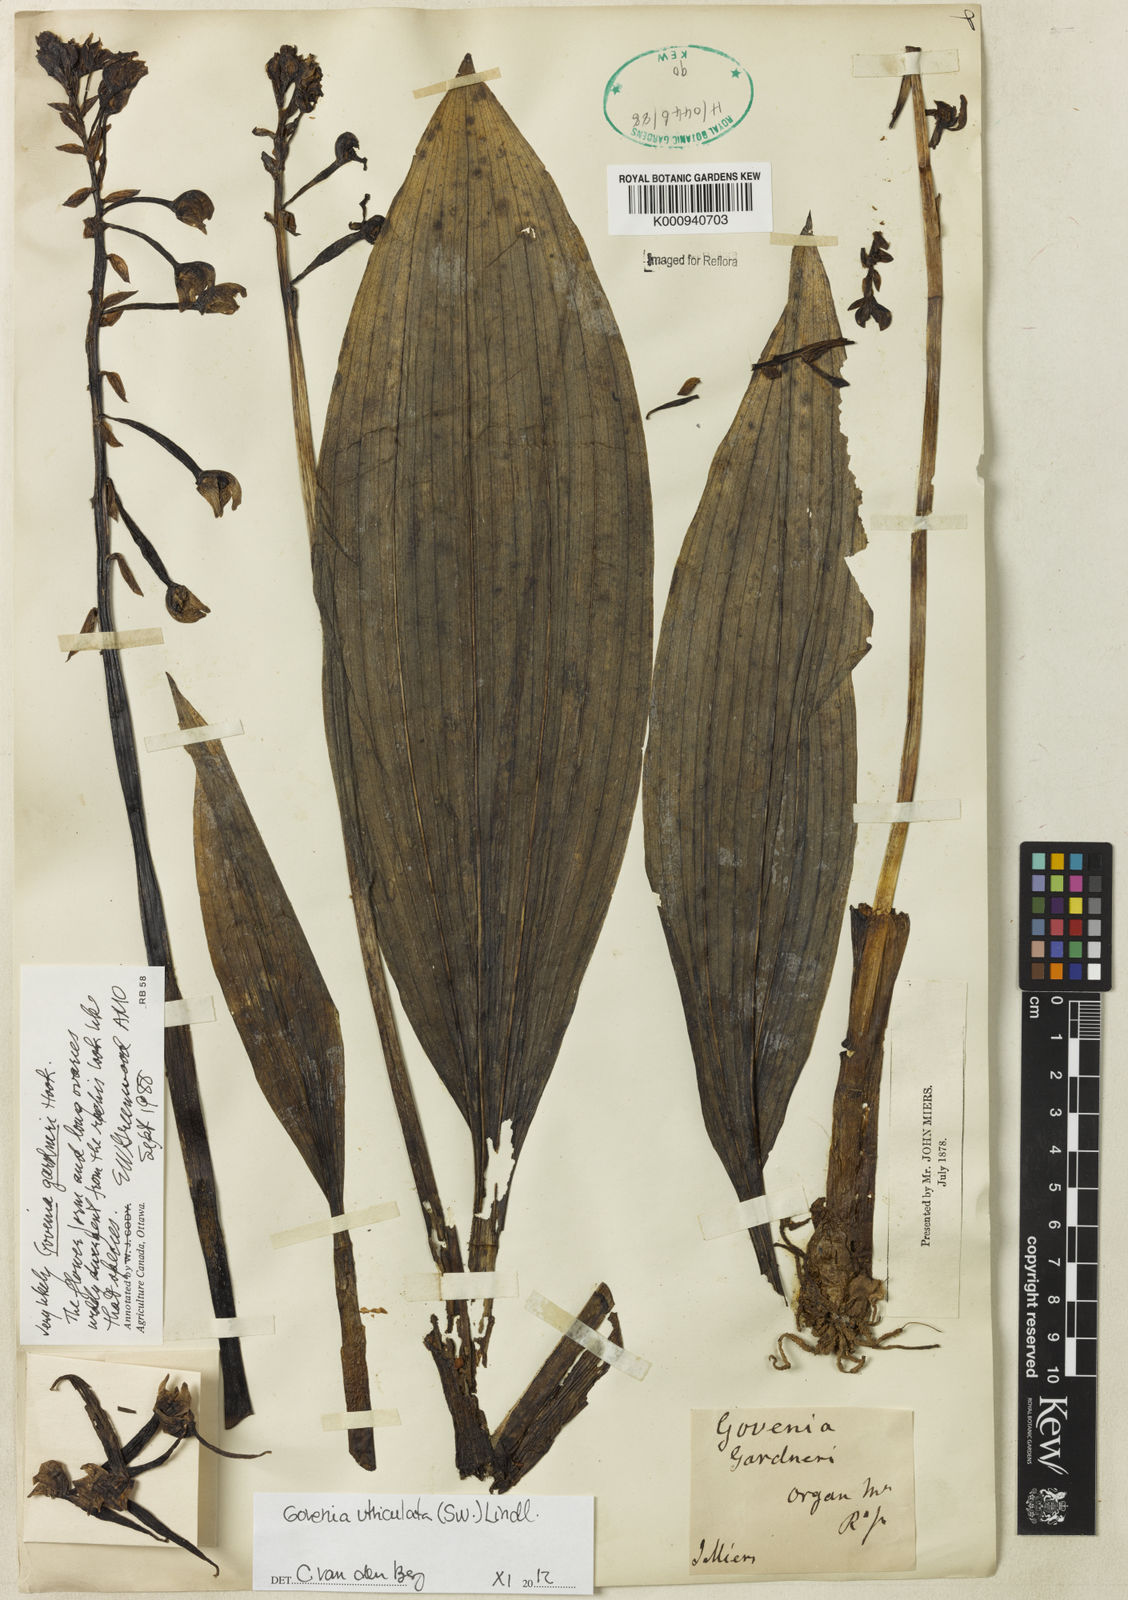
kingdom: Plantae
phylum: Tracheophyta
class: Liliopsida
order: Asparagales
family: Orchidaceae
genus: Govenia
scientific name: Govenia utriculata
